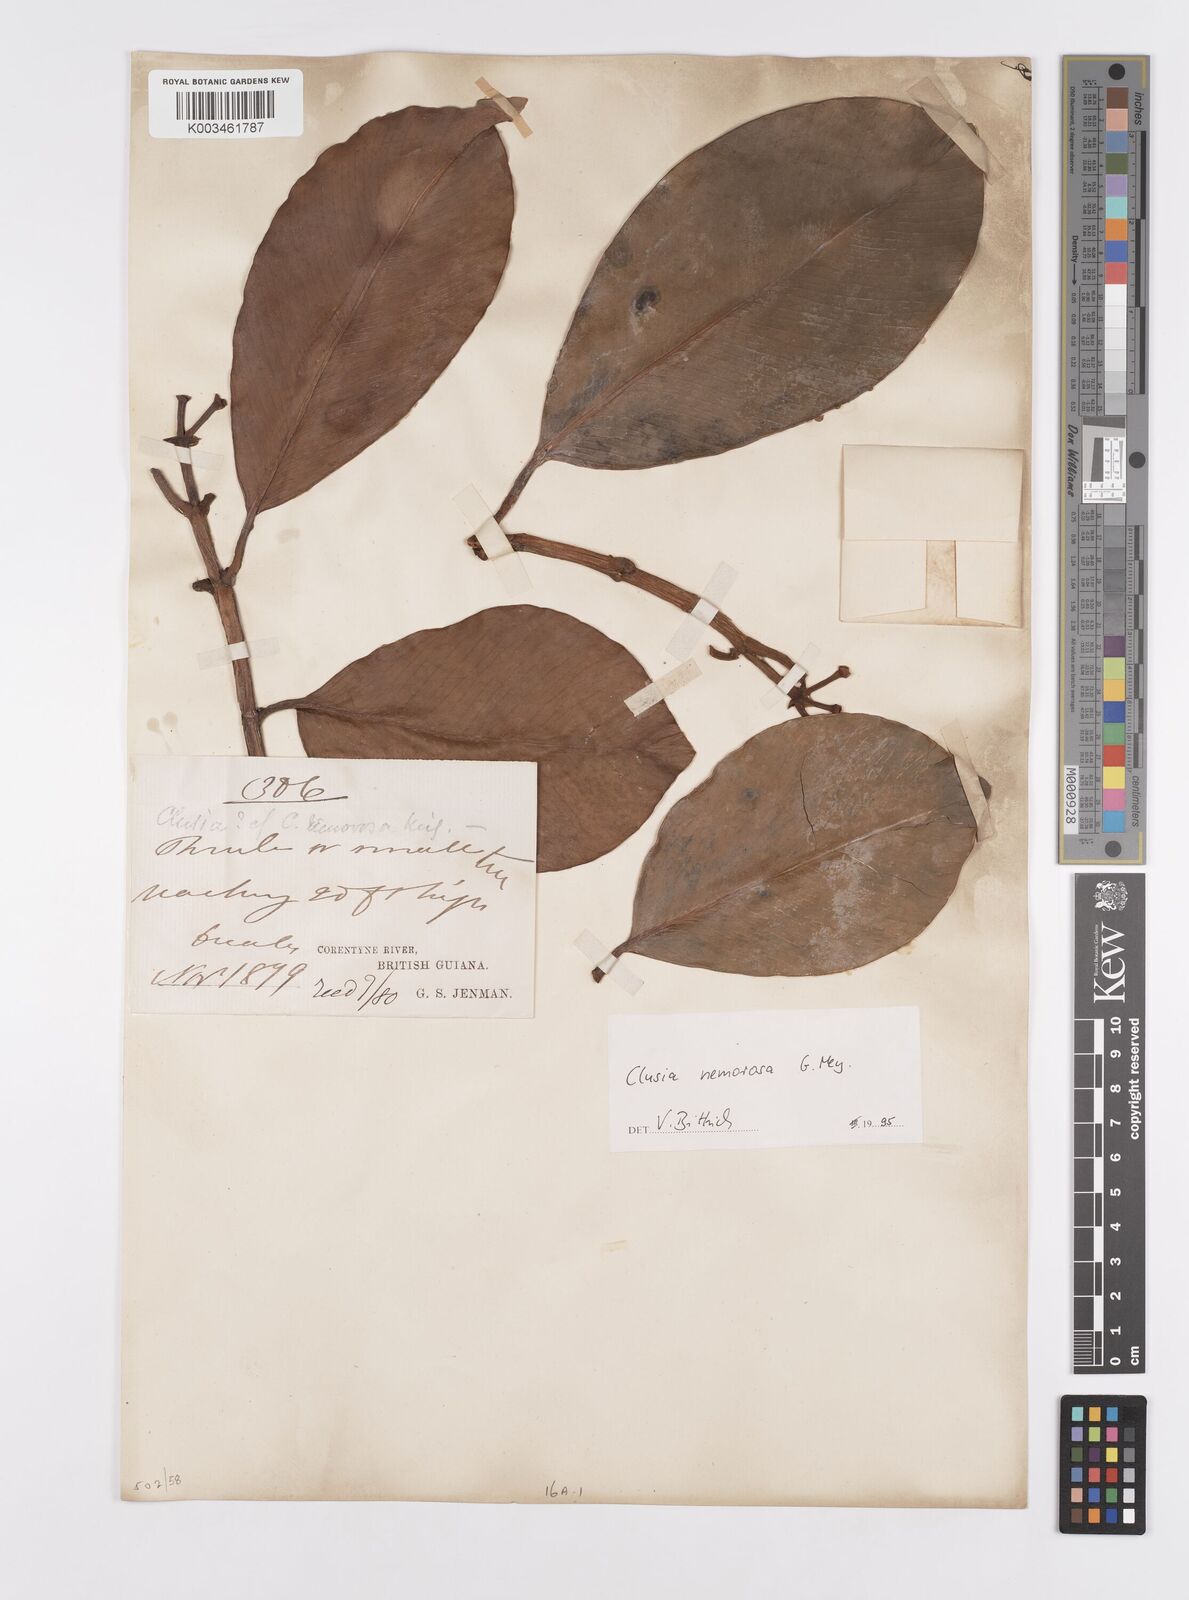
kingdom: Plantae
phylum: Tracheophyta
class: Magnoliopsida
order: Malpighiales
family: Clusiaceae
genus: Clusia
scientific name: Clusia nemorosa
